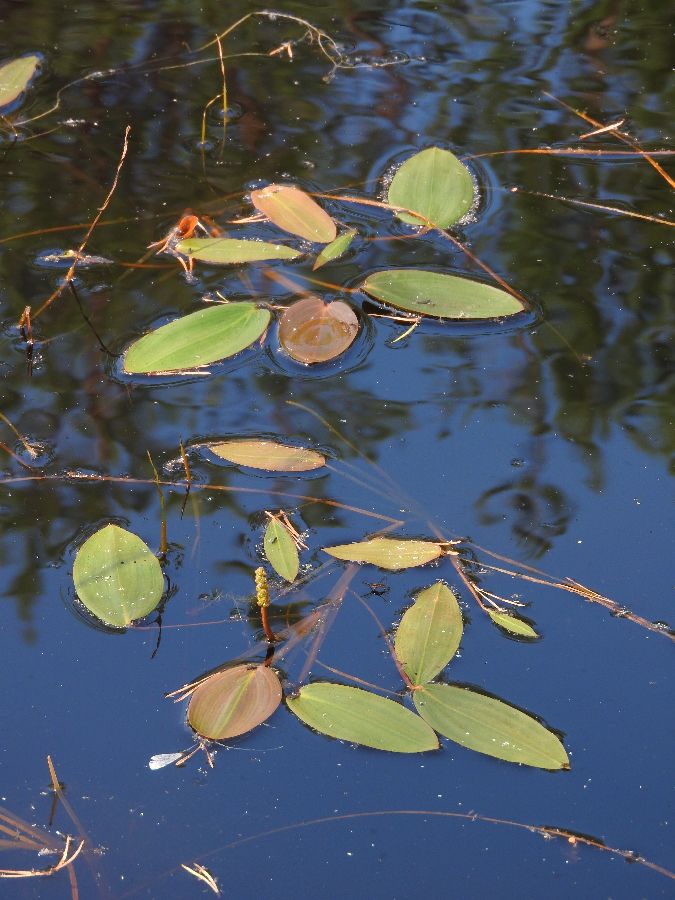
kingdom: Plantae
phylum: Tracheophyta
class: Liliopsida
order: Alismatales
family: Potamogetonaceae
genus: Potamogeton
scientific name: Potamogeton natans
